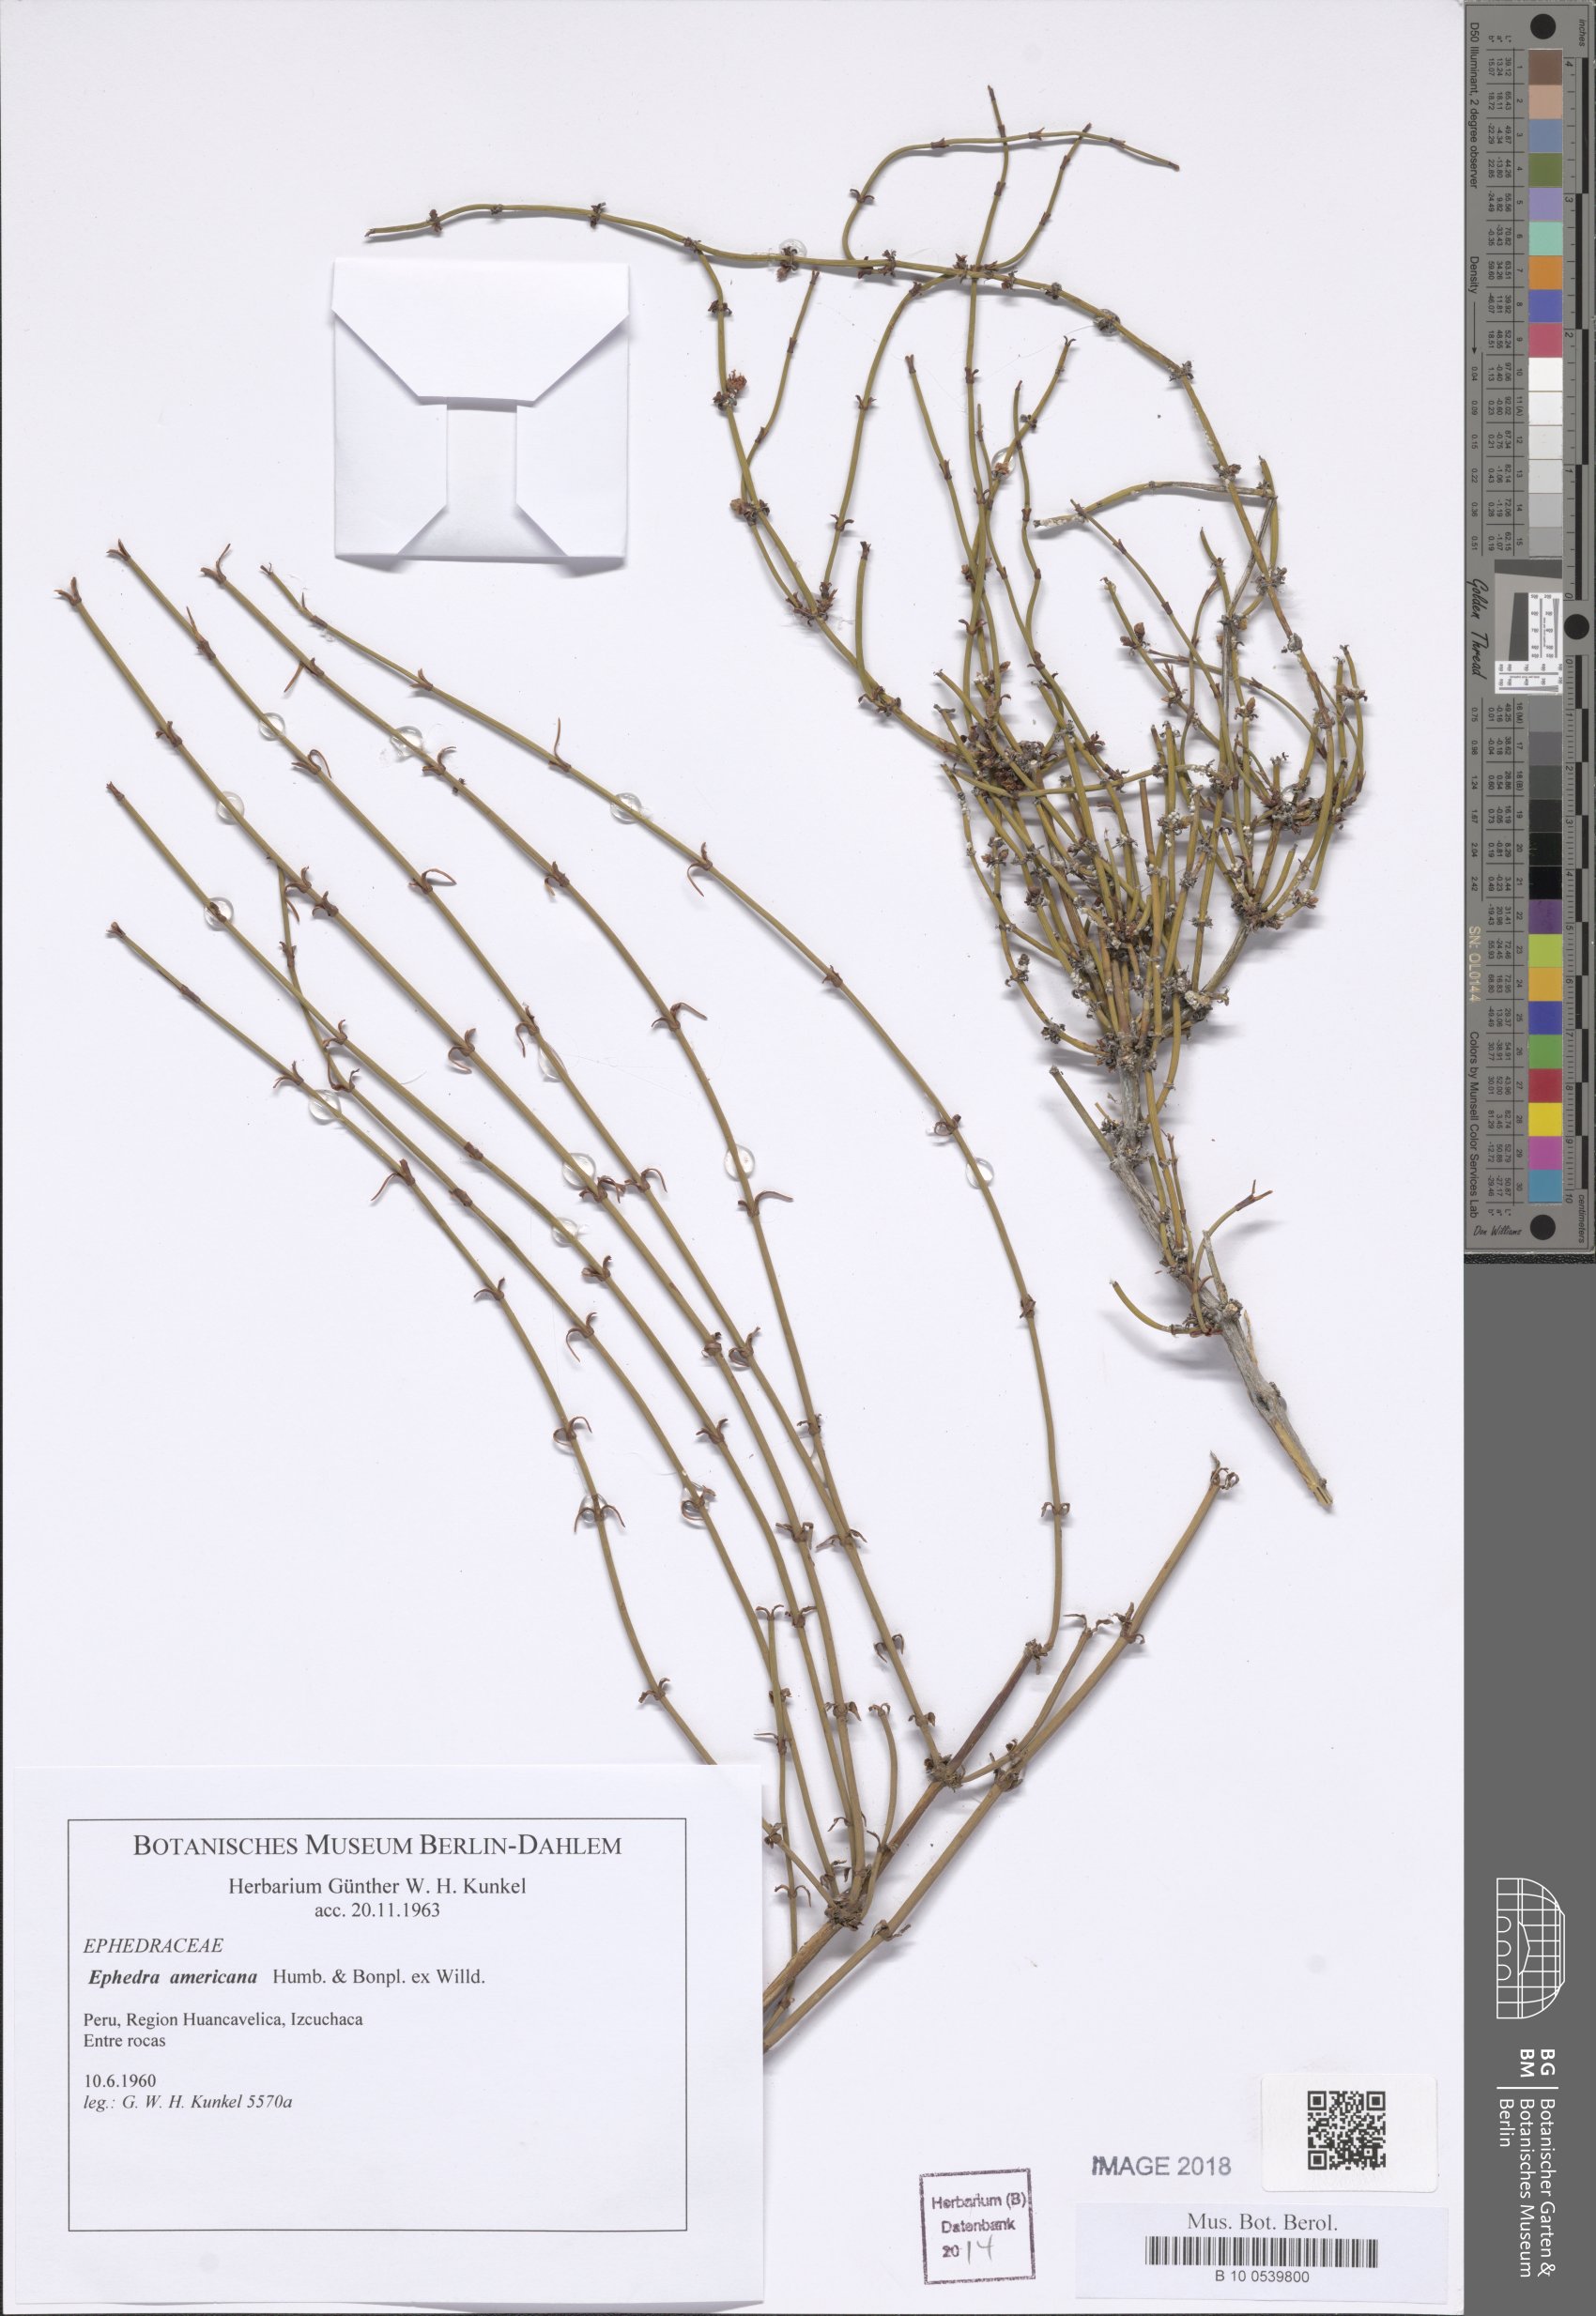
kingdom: Plantae
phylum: Tracheophyta
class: Gnetopsida
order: Ephedrales
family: Ephedraceae
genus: Ephedra
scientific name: Ephedra americana
